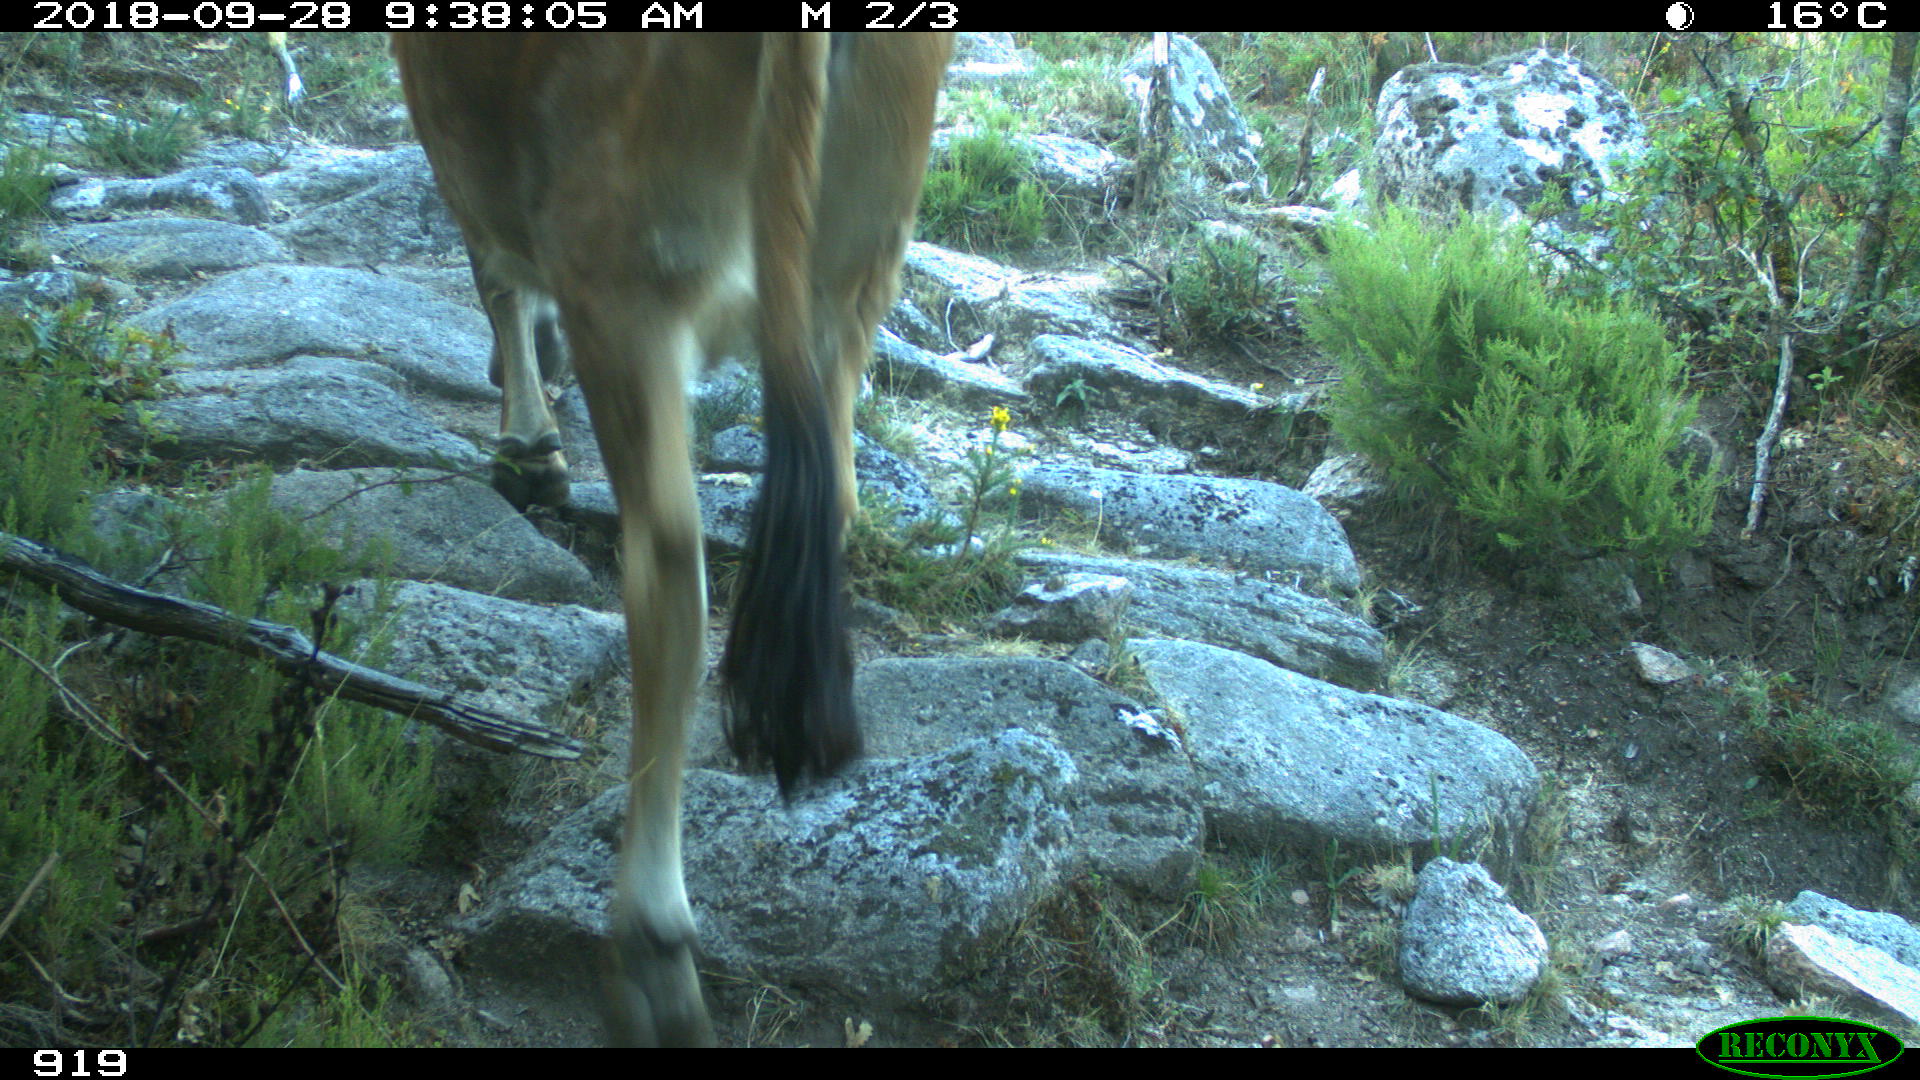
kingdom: Animalia
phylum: Chordata
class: Mammalia
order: Artiodactyla
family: Bovidae
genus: Bos
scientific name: Bos taurus
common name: Domesticated cattle
